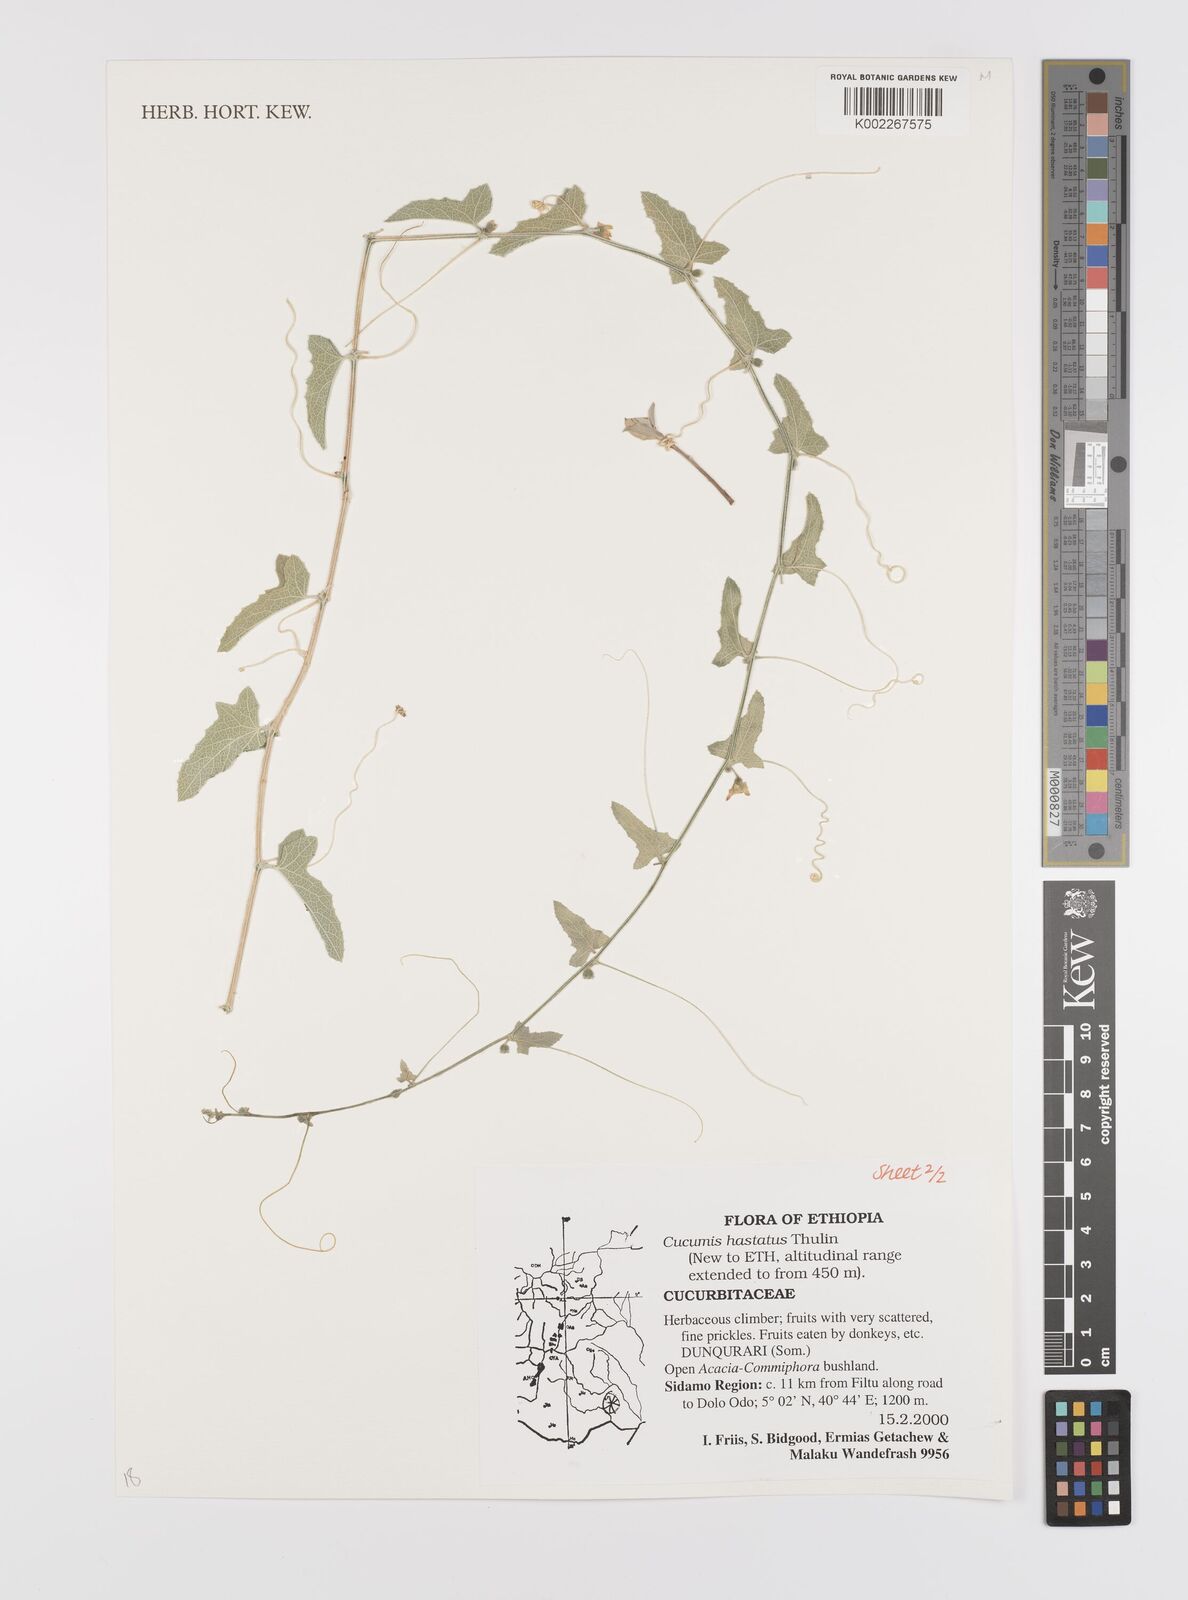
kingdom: Plantae
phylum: Tracheophyta
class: Magnoliopsida
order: Cucurbitales
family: Cucurbitaceae
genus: Cucumis
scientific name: Cucumis hastatus
